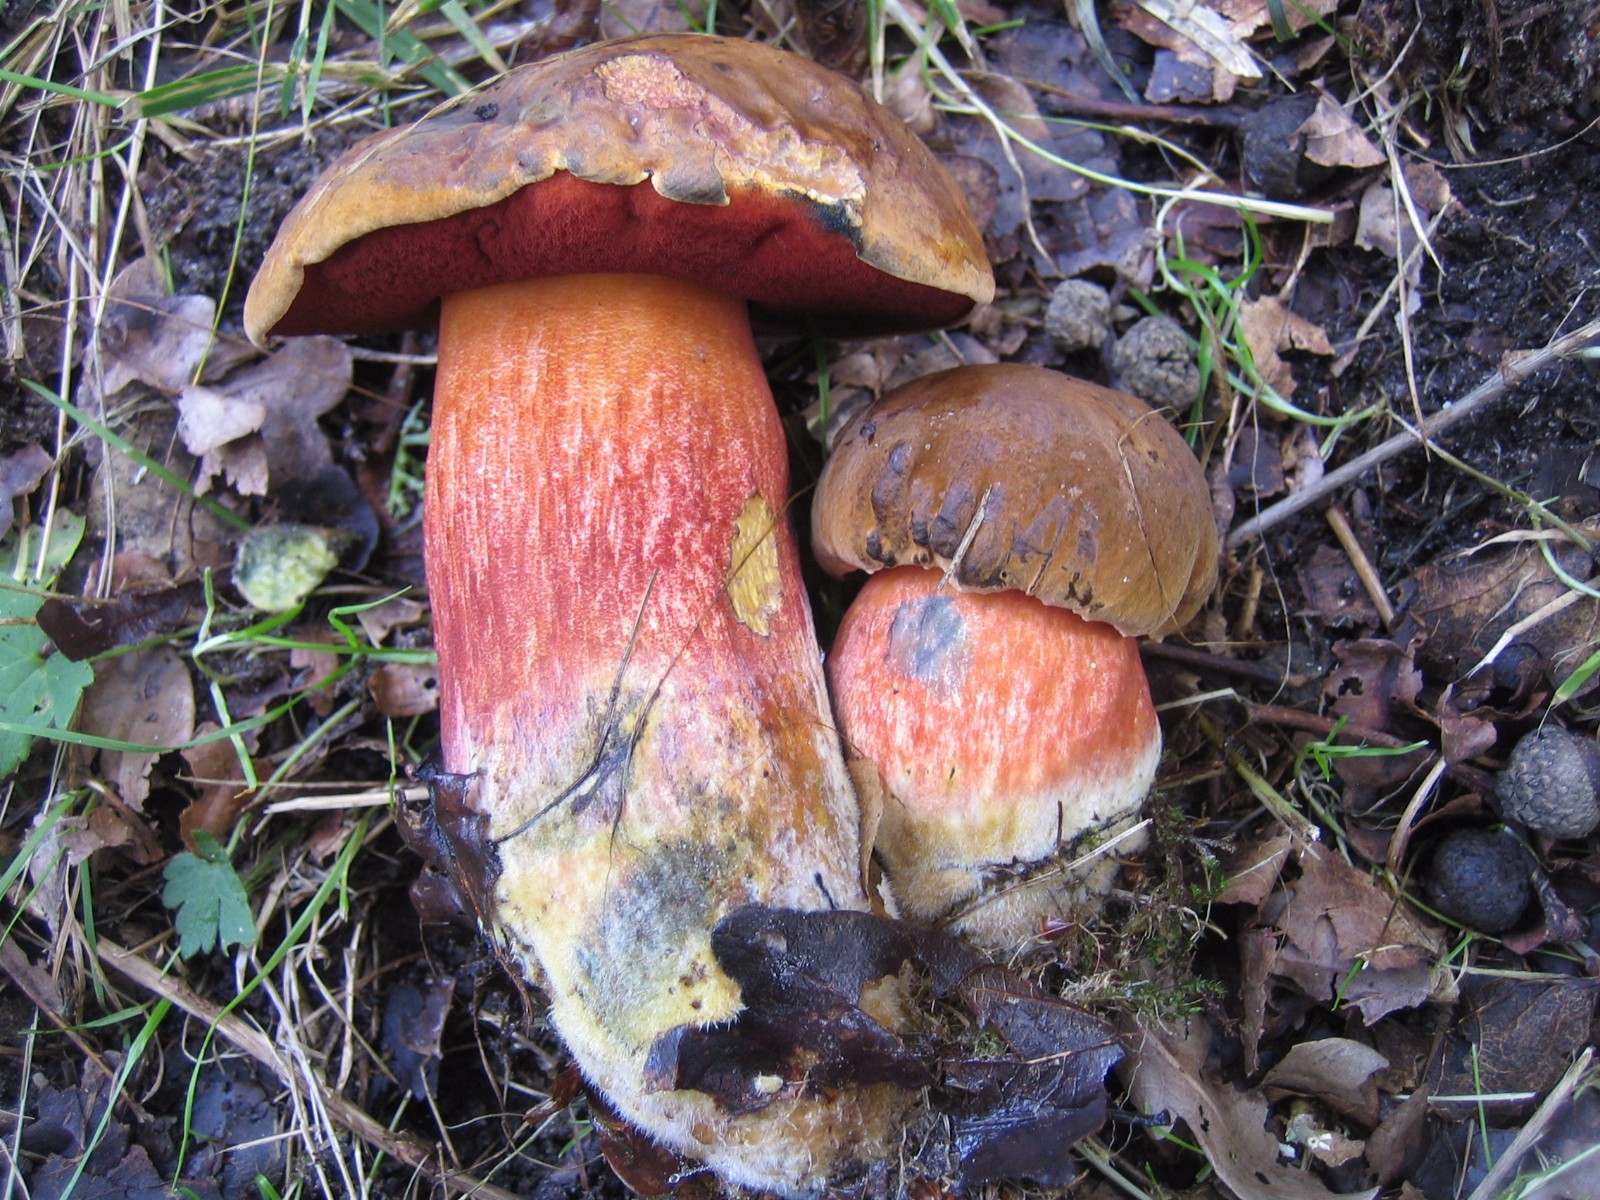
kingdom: Fungi
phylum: Basidiomycota
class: Agaricomycetes
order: Boletales
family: Boletaceae
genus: Neoboletus
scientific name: Neoboletus erythropus
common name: punktstokket indigorørhat
